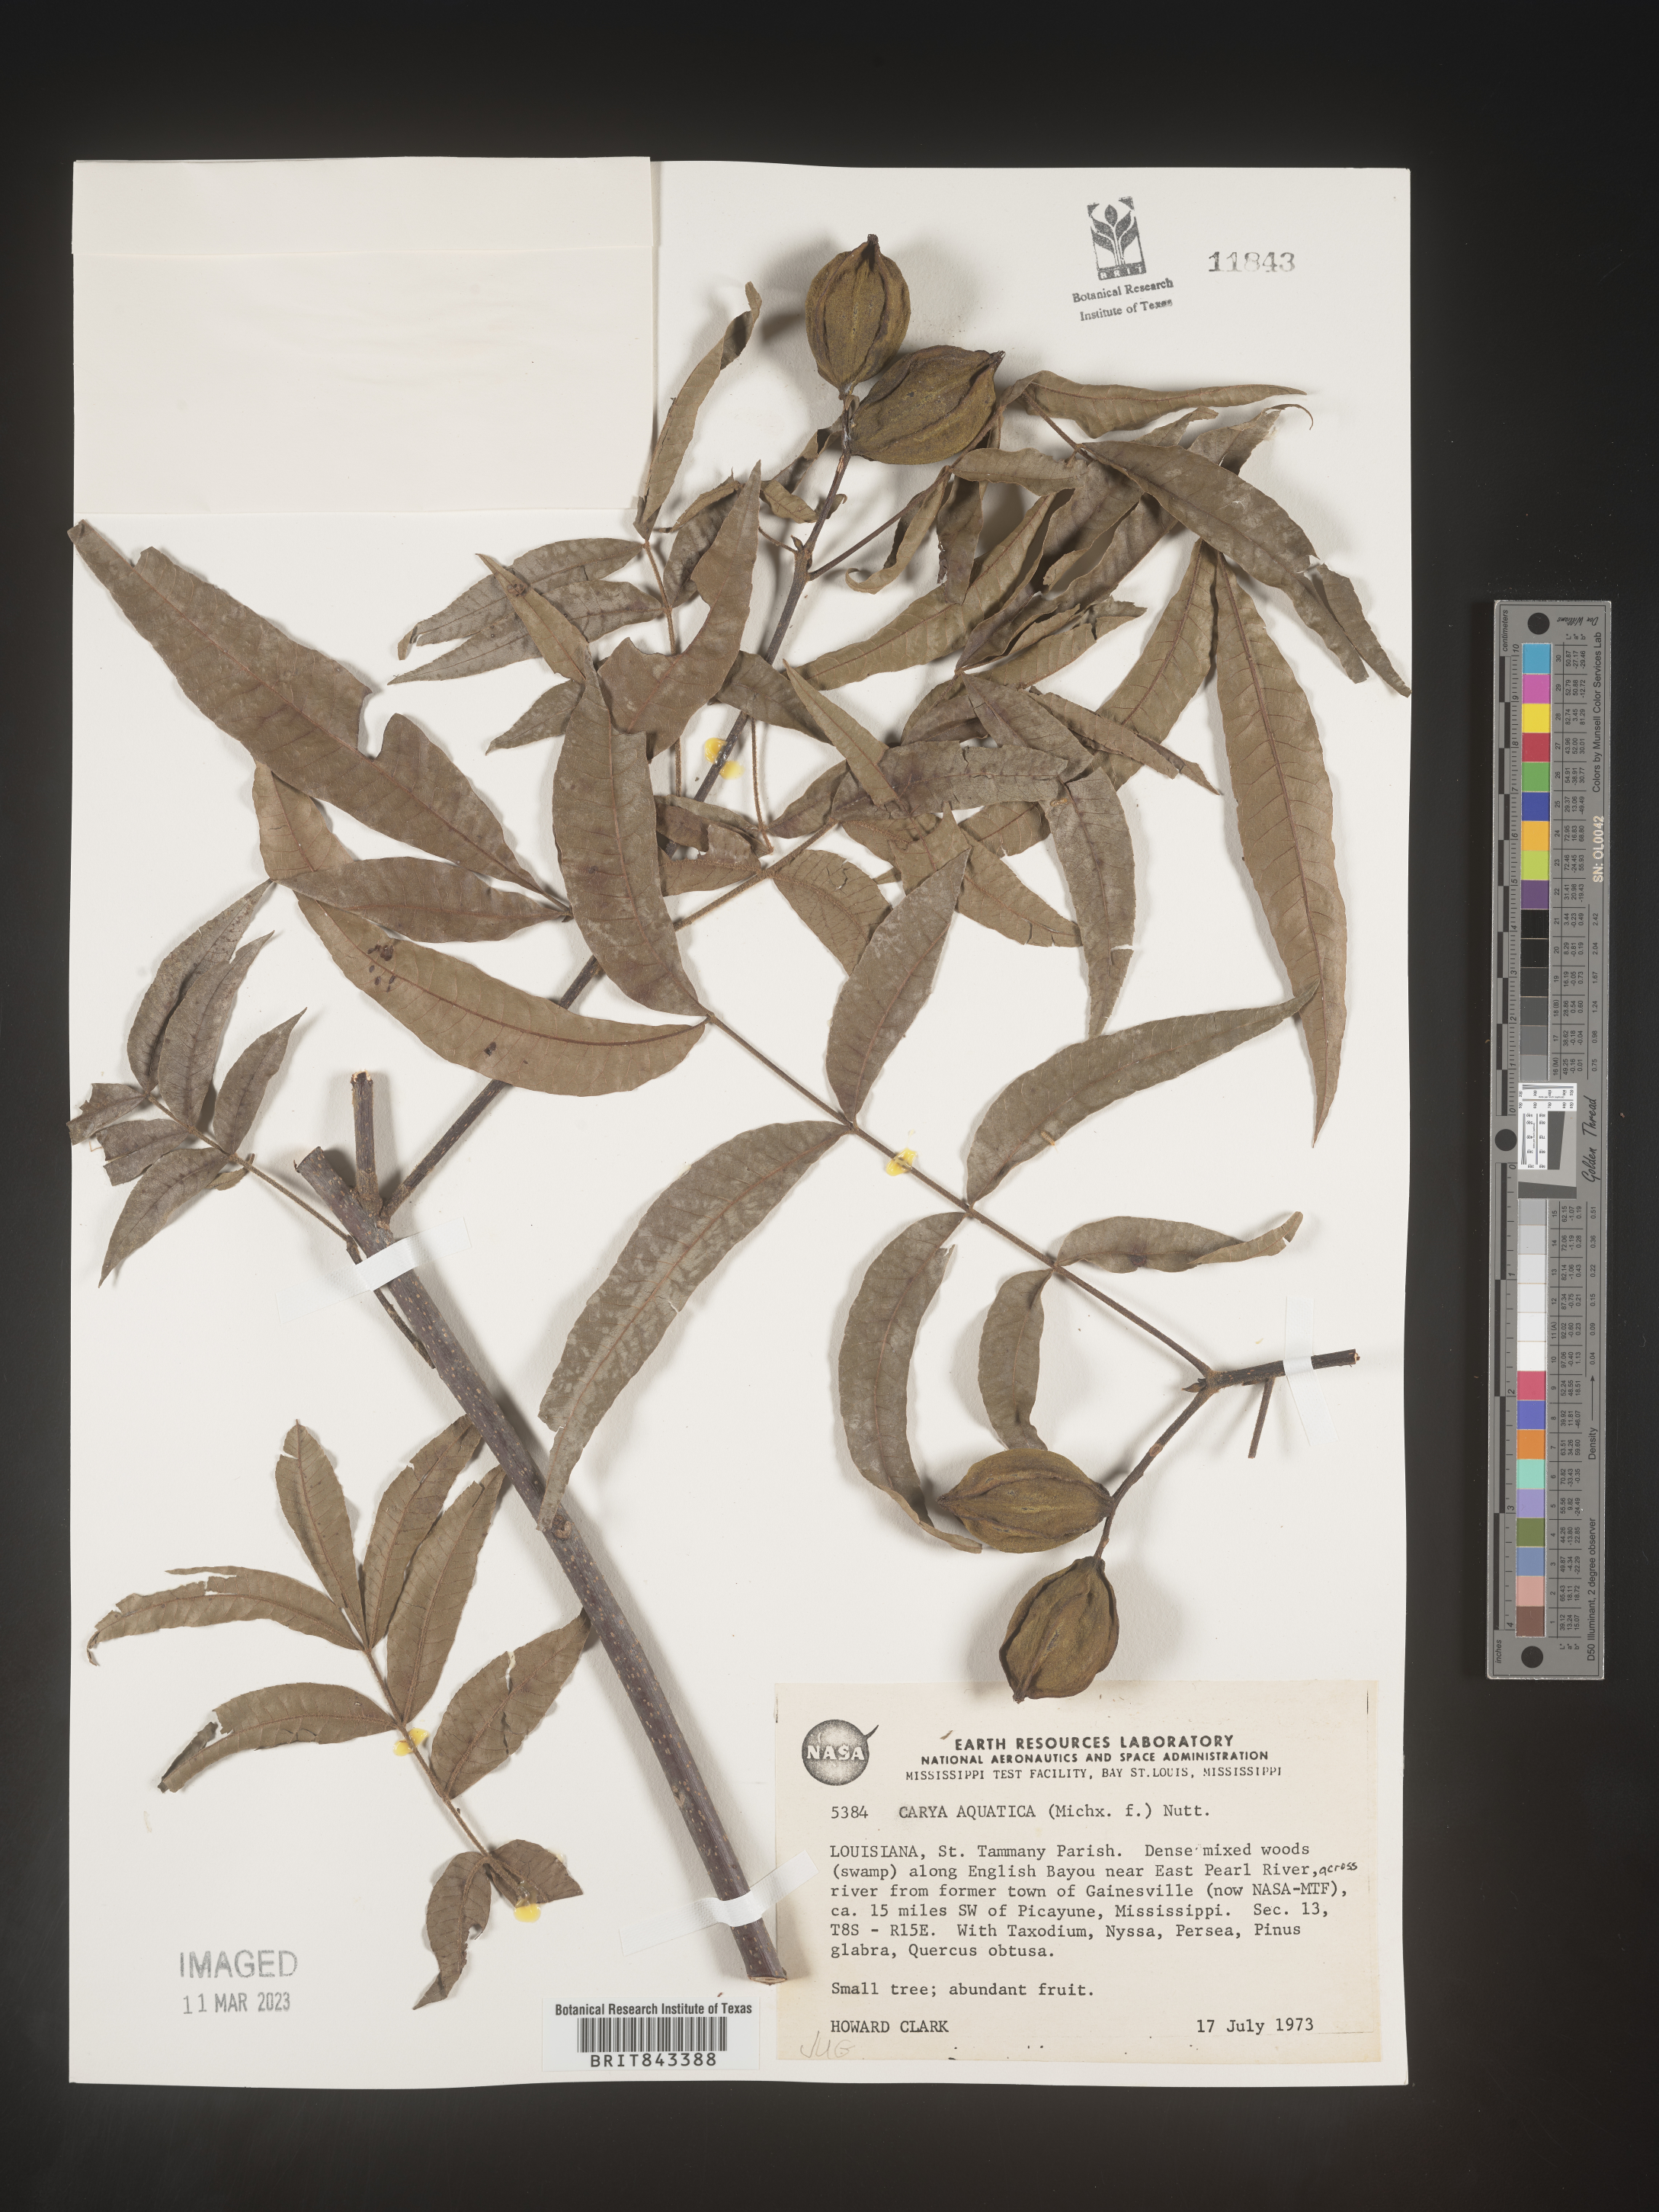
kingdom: Plantae
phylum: Tracheophyta
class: Magnoliopsida
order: Fagales
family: Juglandaceae
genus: Carya
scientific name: Carya aquatica
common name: Water hickory
